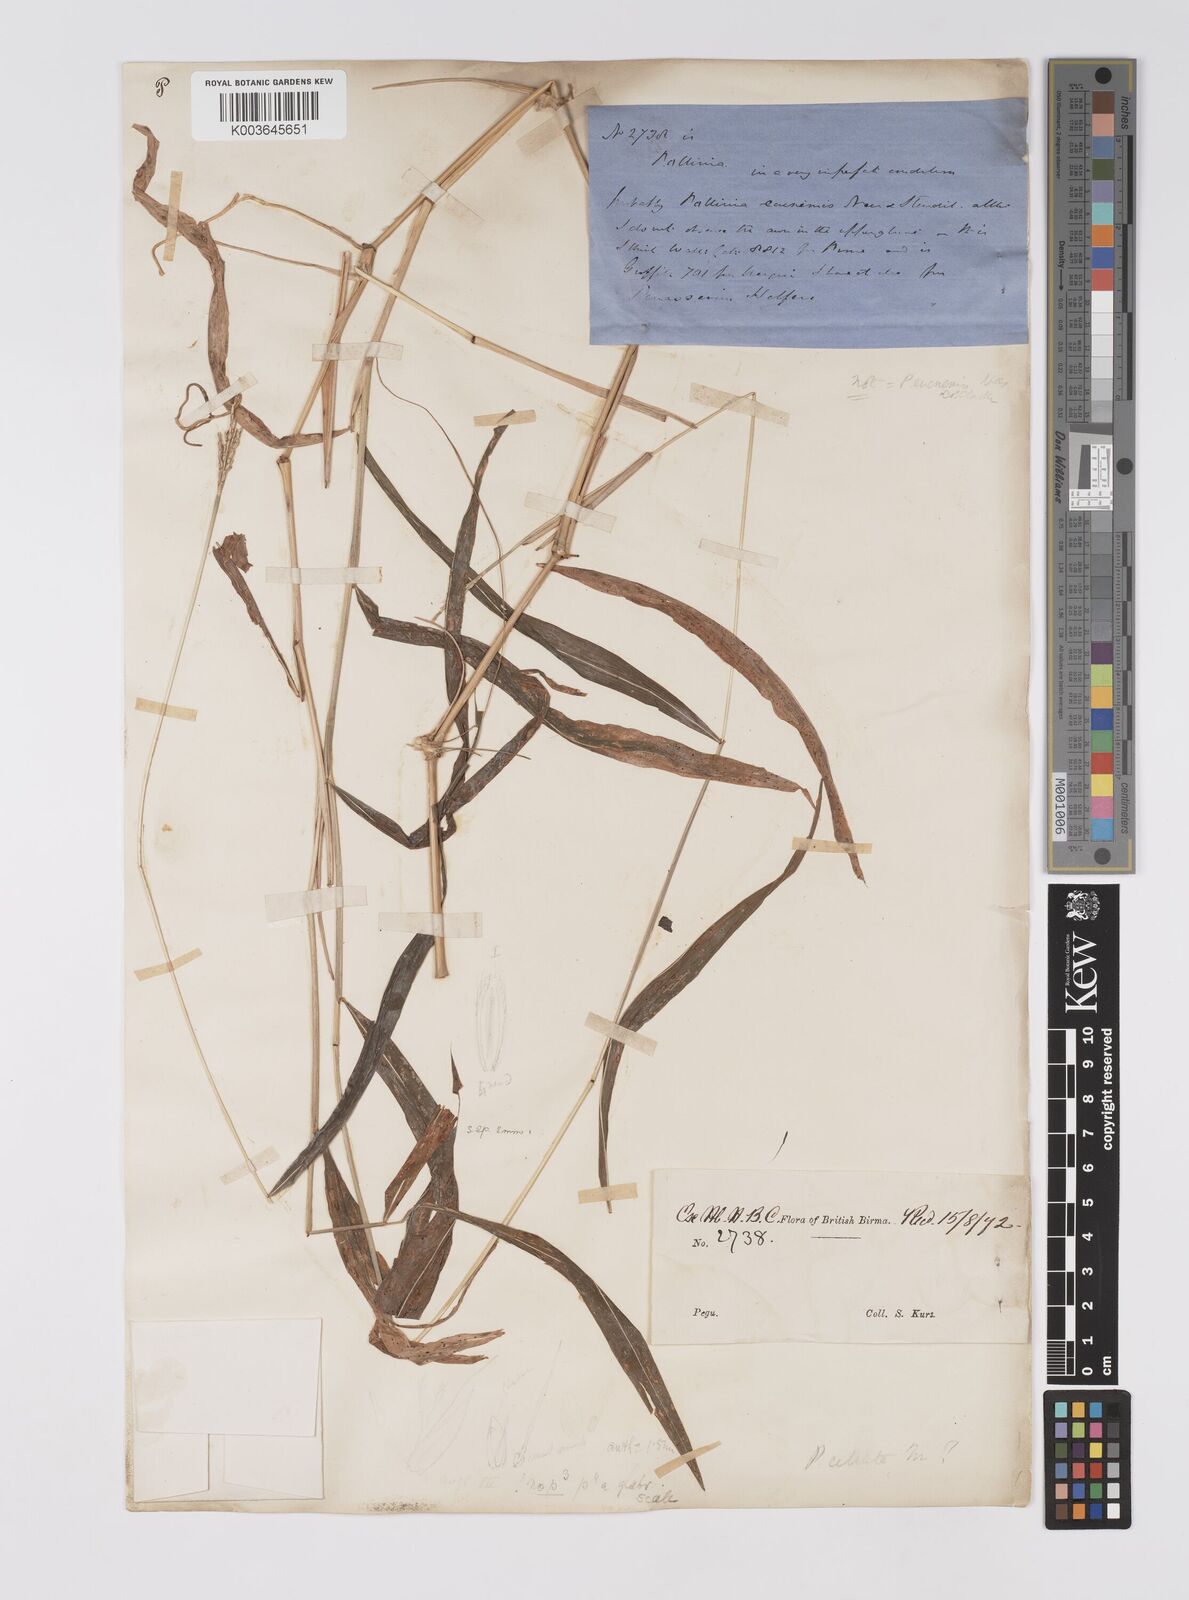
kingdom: Plantae
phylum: Tracheophyta
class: Liliopsida
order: Poales
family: Poaceae
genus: Microstegium
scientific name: Microstegium fasciculatum
